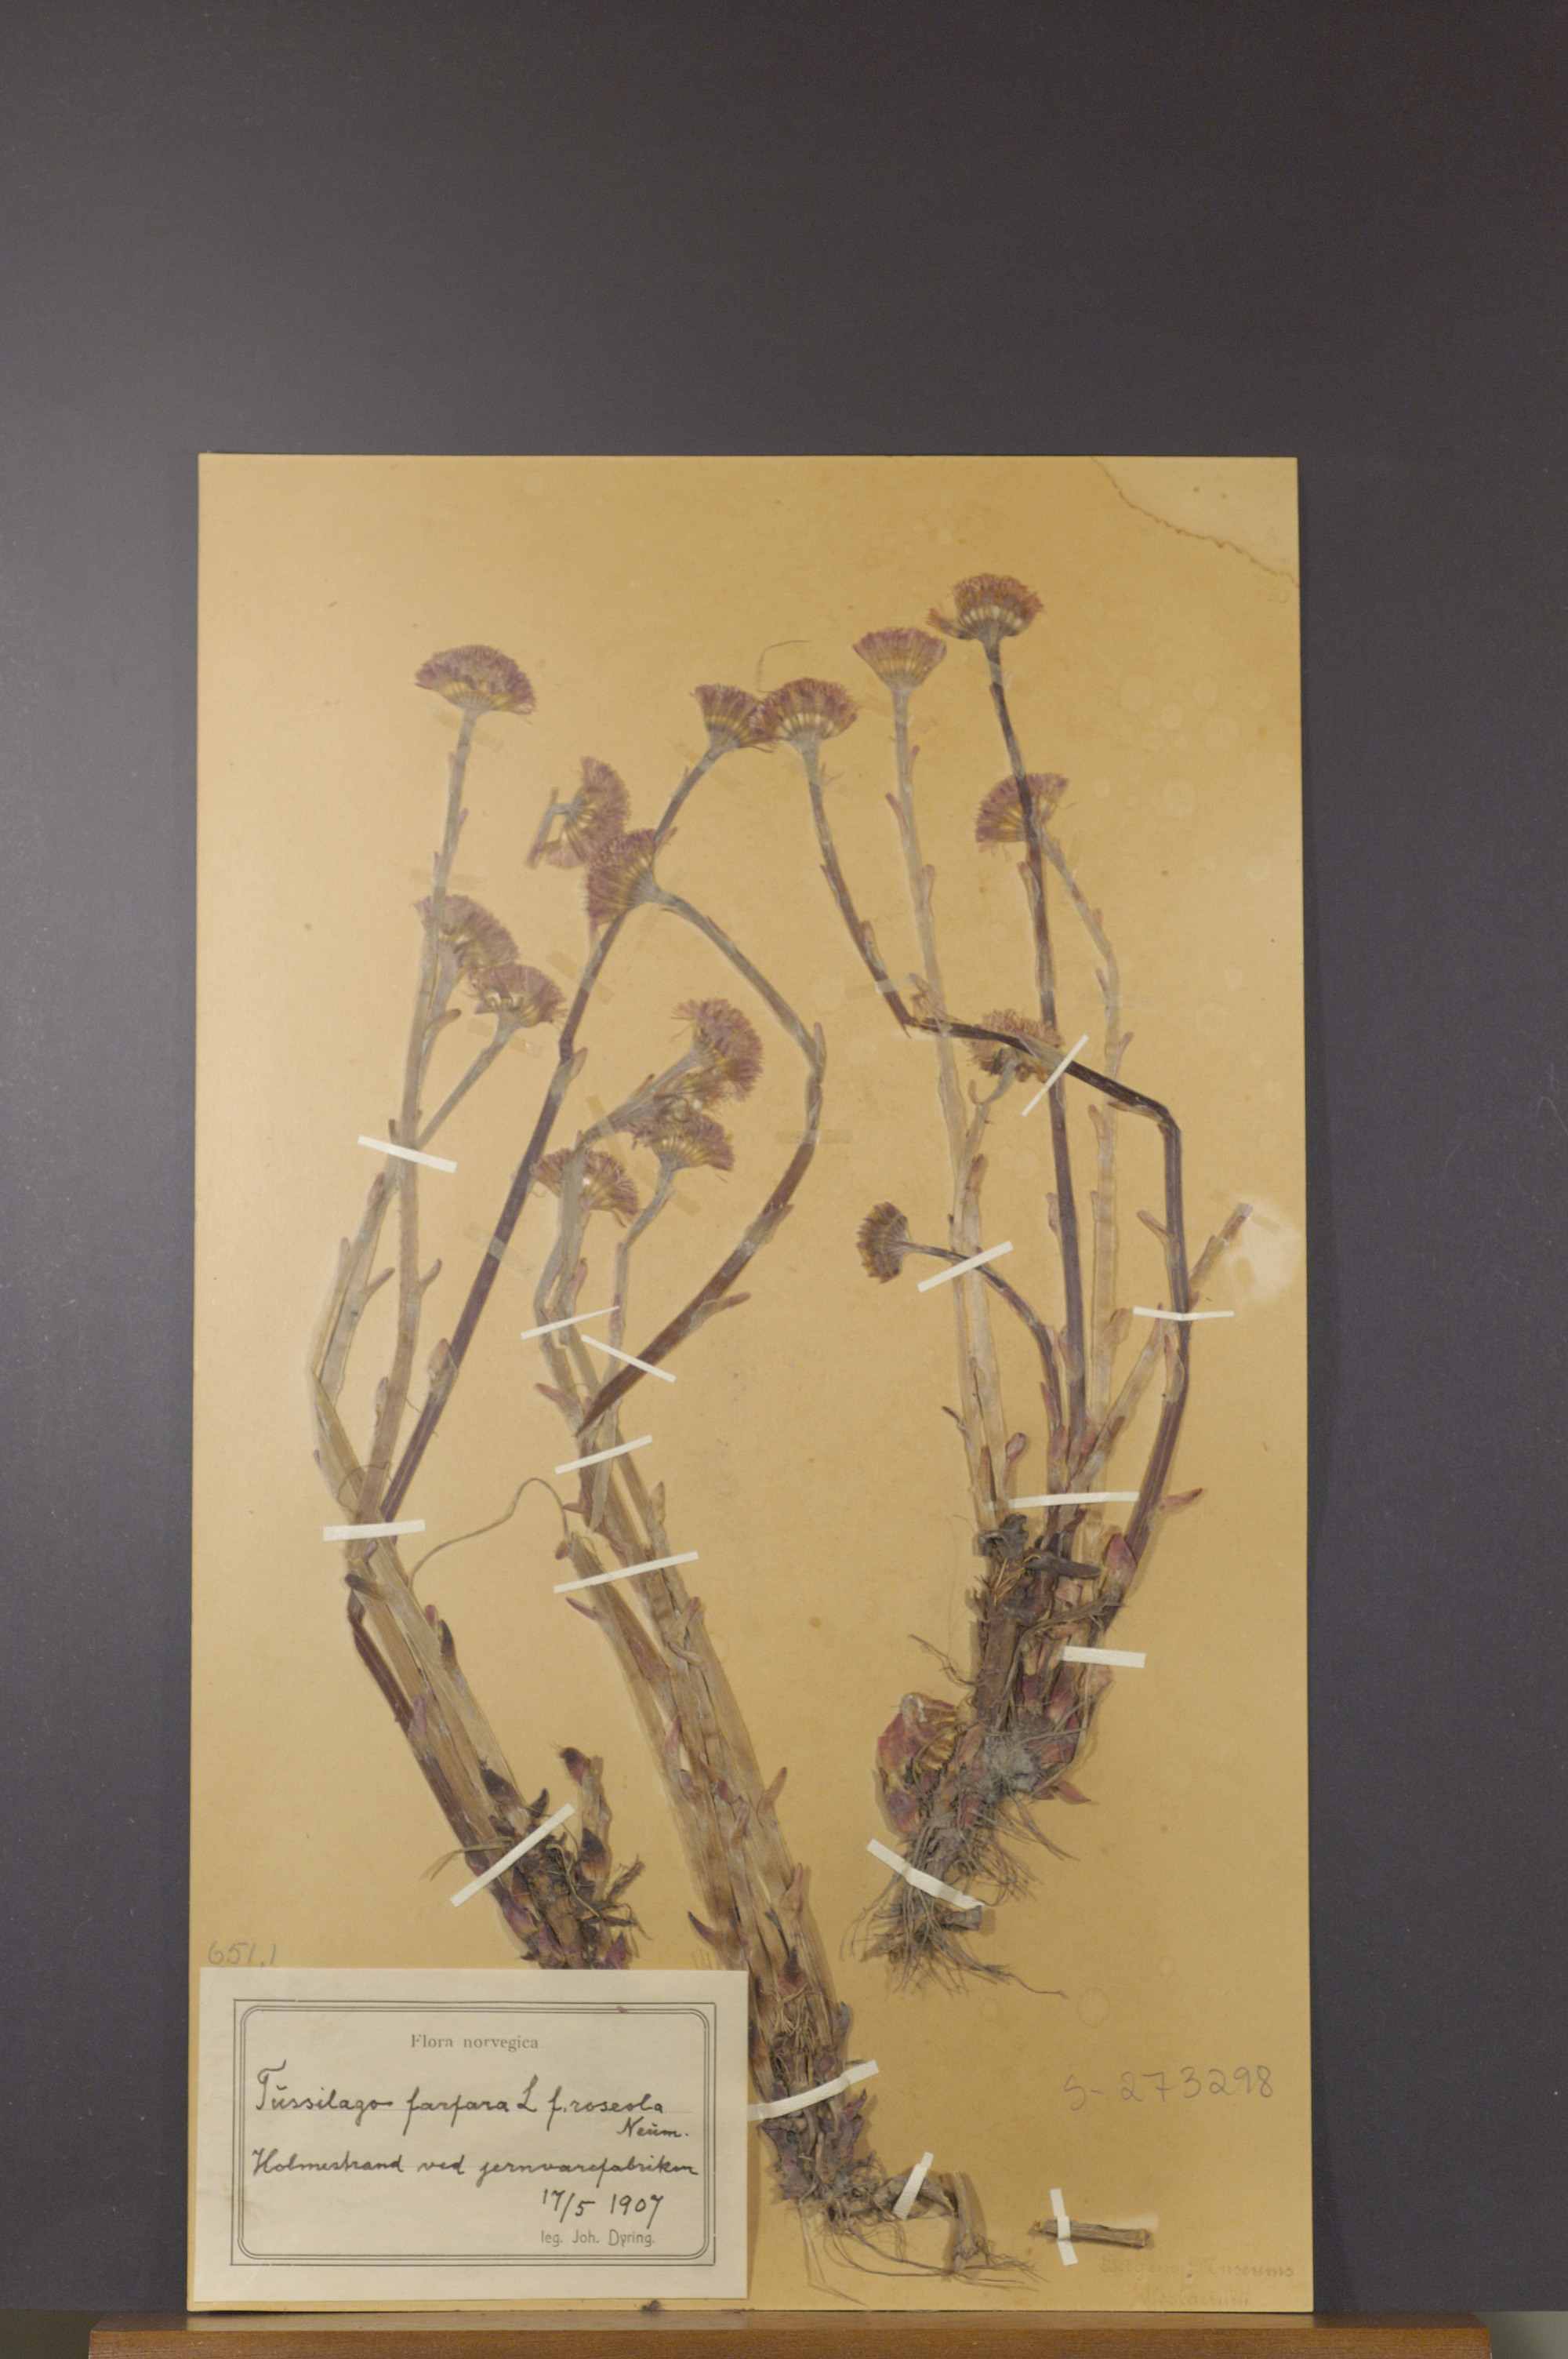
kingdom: Plantae
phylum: Tracheophyta
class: Magnoliopsida
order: Asterales
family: Asteraceae
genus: Tussilago
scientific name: Tussilago farfara
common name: Coltsfoot
